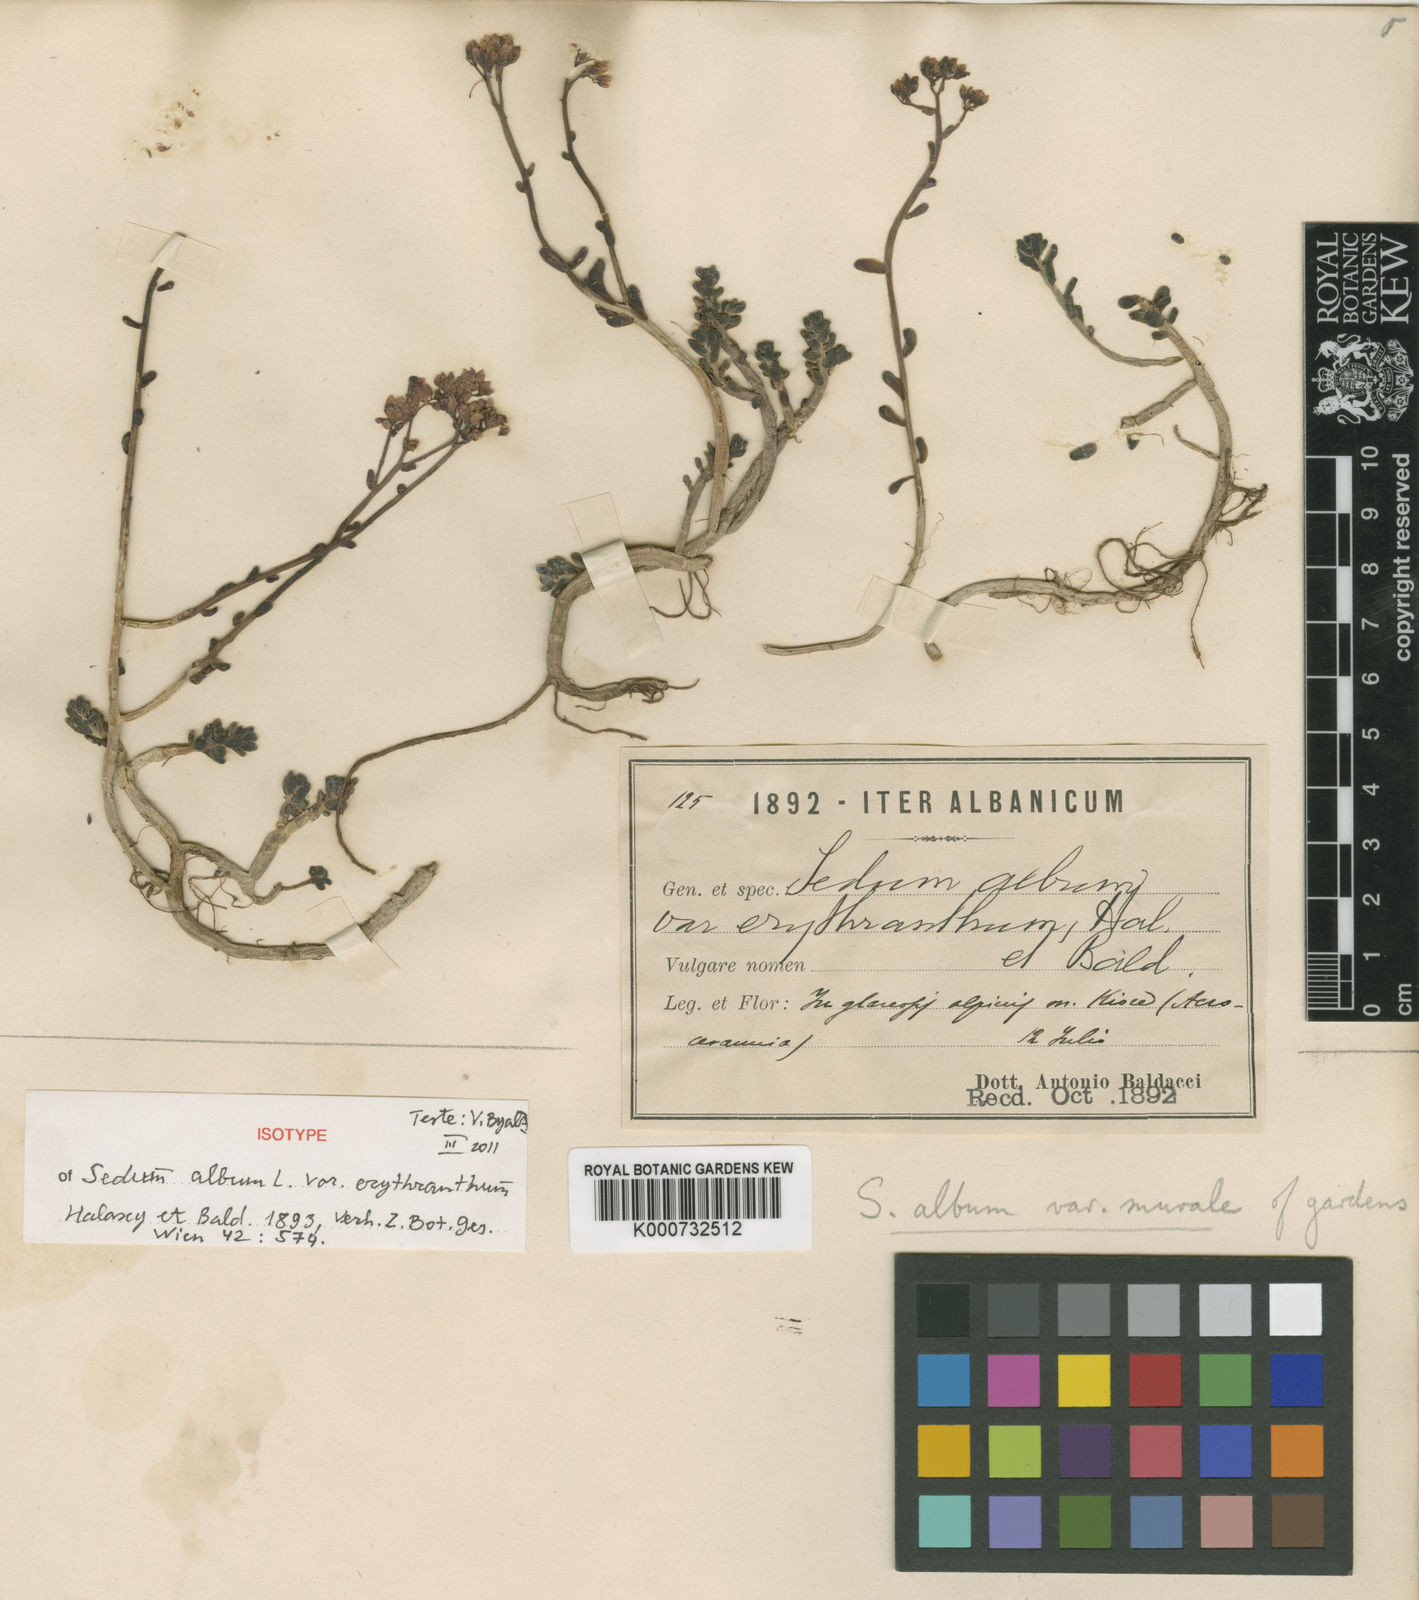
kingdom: Plantae
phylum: Tracheophyta
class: Magnoliopsida
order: Saxifragales
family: Crassulaceae
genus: Sedum
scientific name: Sedum album
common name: White stonecrop
